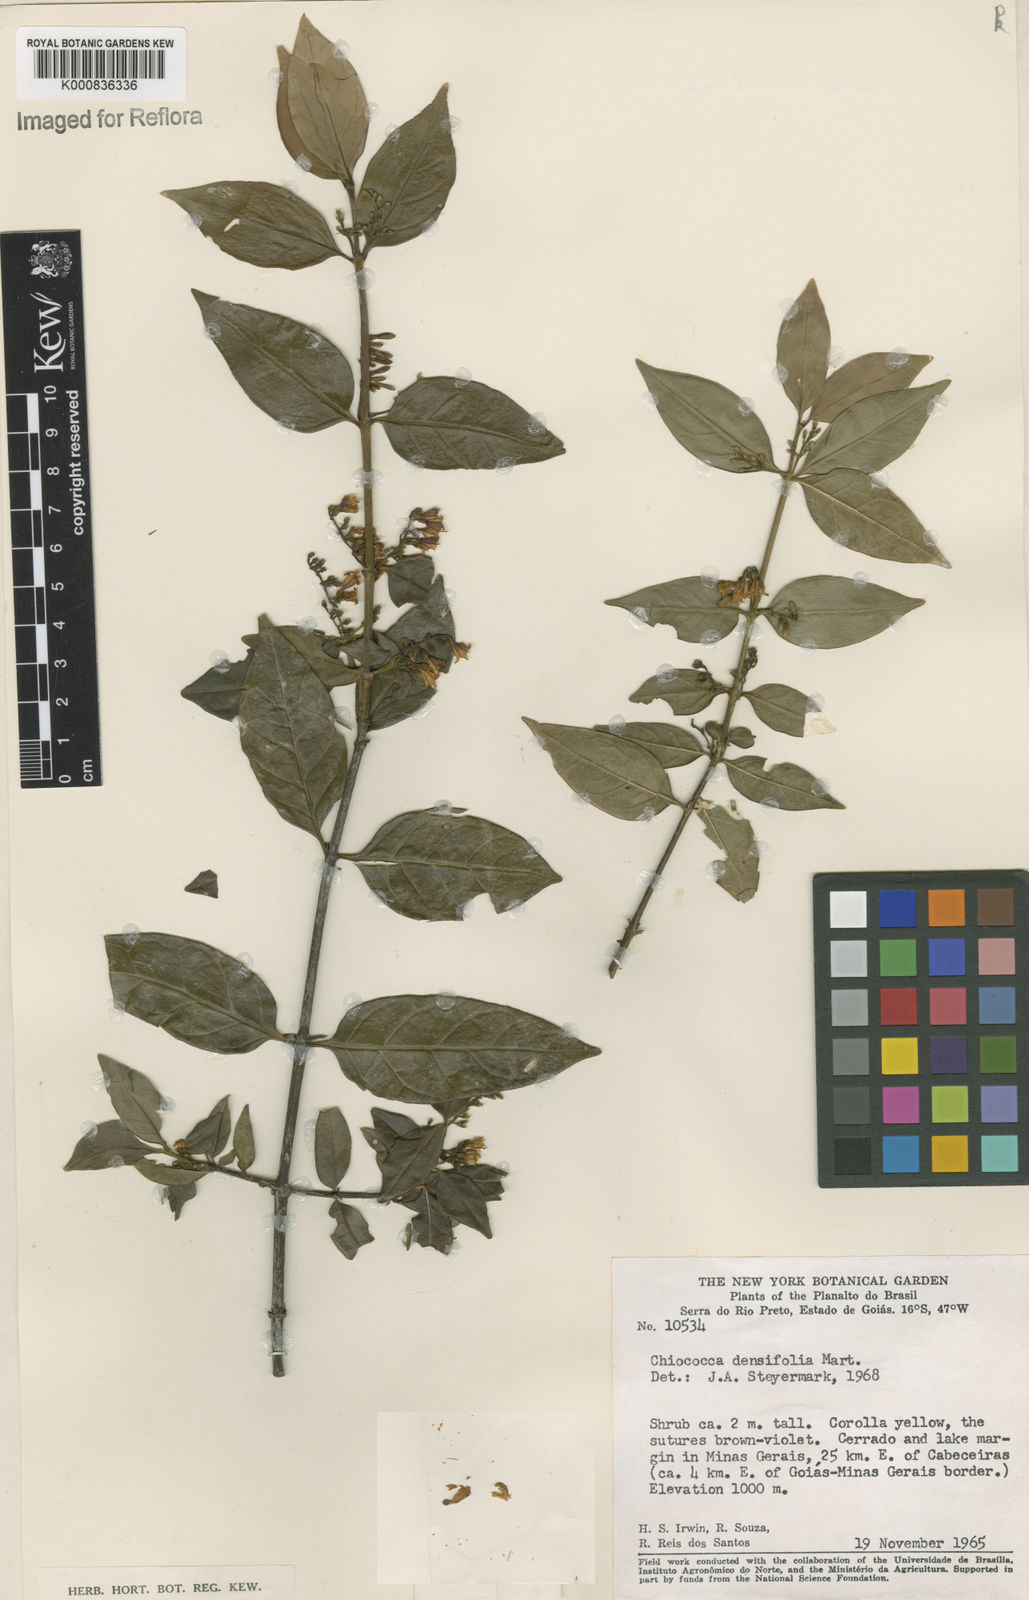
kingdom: Plantae
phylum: Tracheophyta
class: Magnoliopsida
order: Gentianales
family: Rubiaceae
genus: Chiococca
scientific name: Chiococca alba
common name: Snowberry
